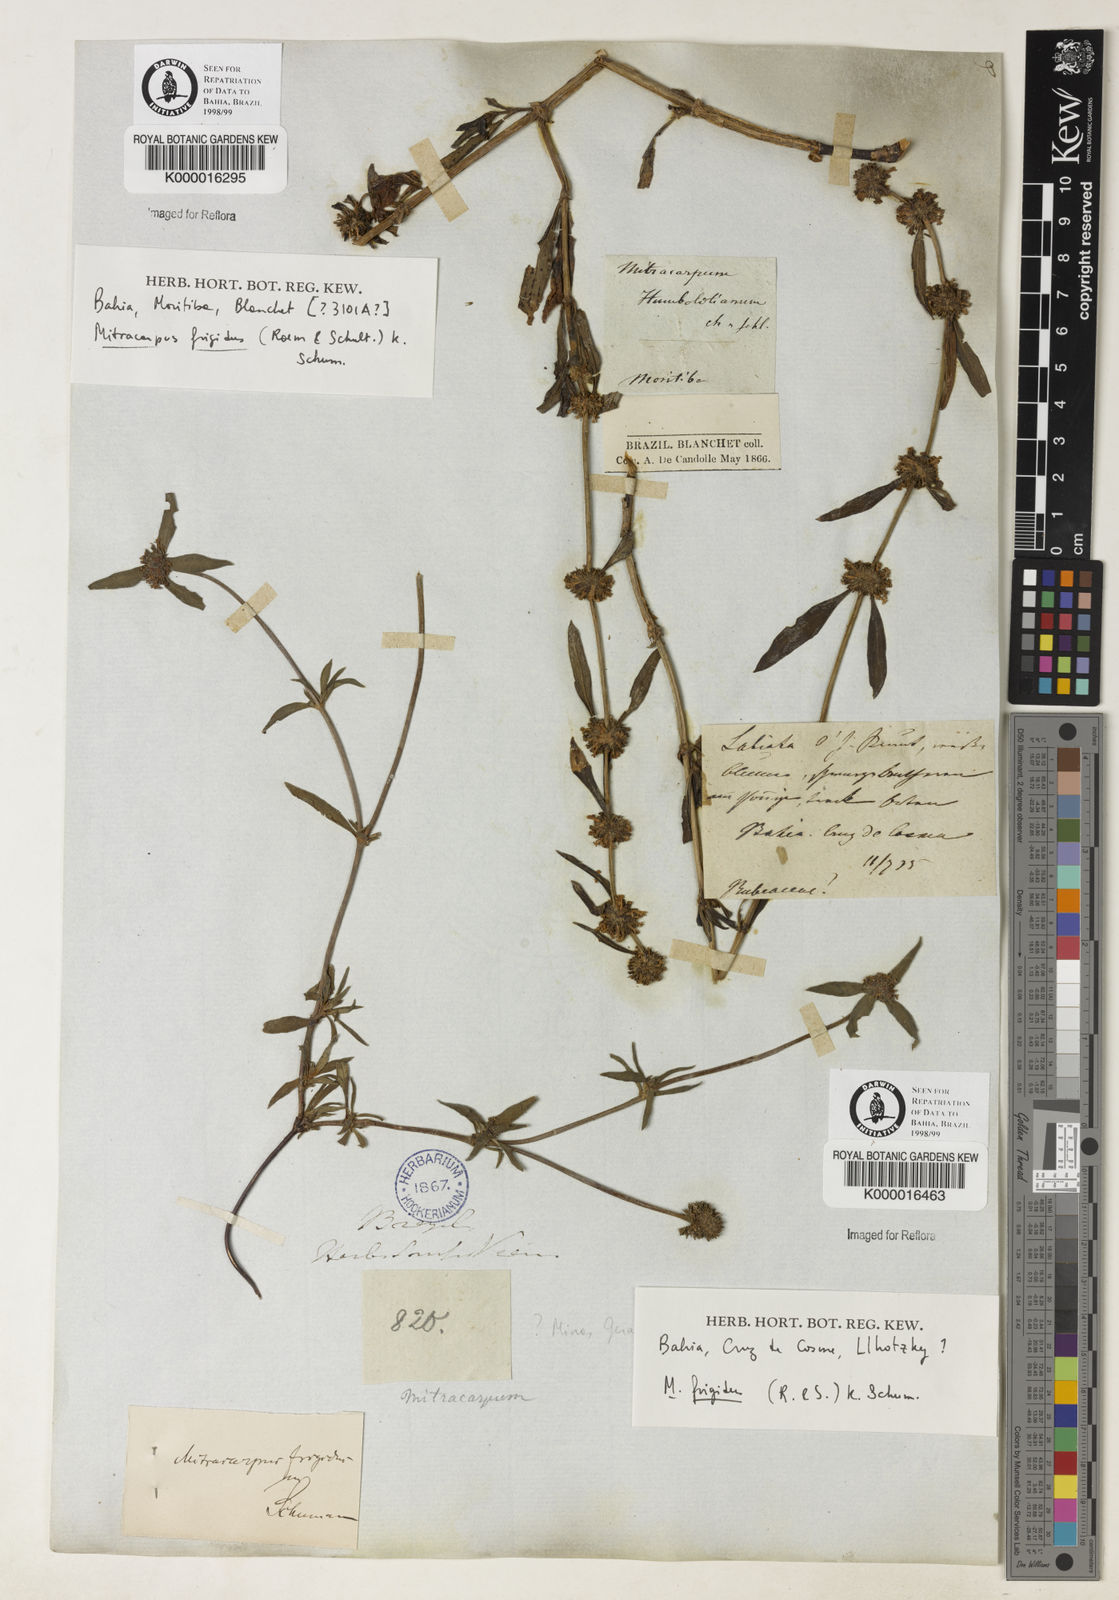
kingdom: Plantae
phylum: Tracheophyta
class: Magnoliopsida
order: Gentianales
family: Rubiaceae
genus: Mitracarpus
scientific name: Mitracarpus frigidus
